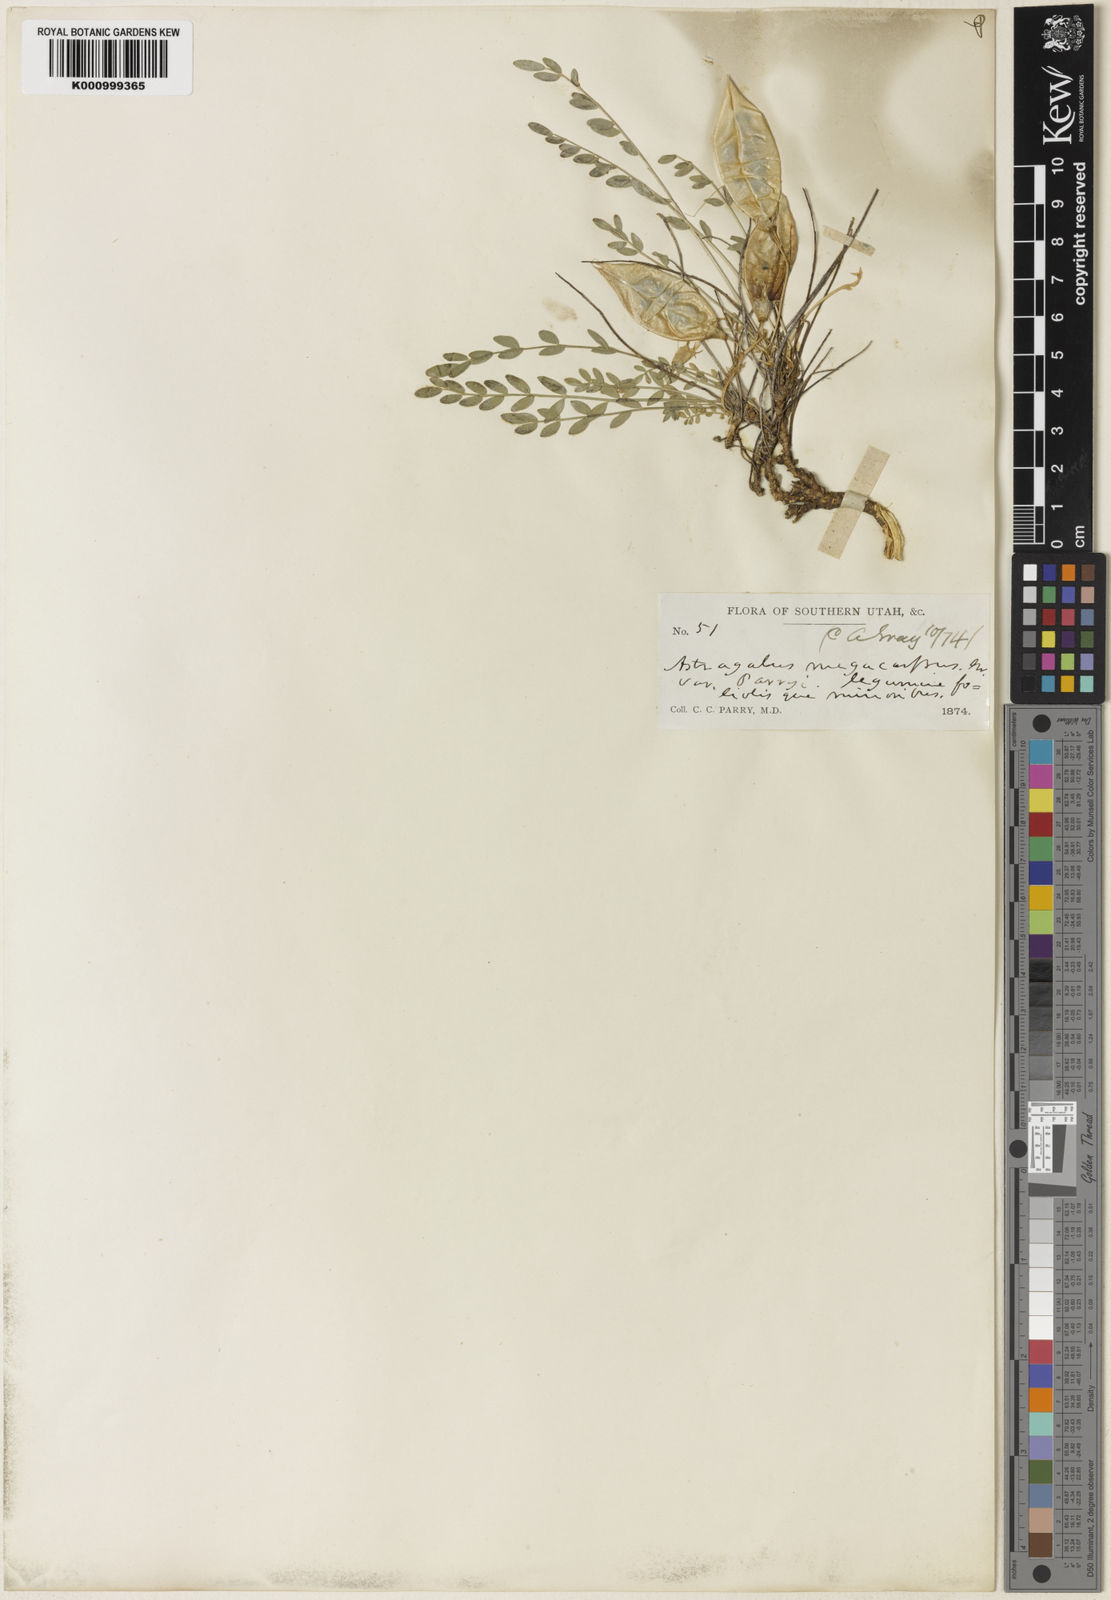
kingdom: Plantae
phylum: Tracheophyta
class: Magnoliopsida
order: Fabales
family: Fabaceae
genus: Astragalus
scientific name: Astragalus megacarpus
